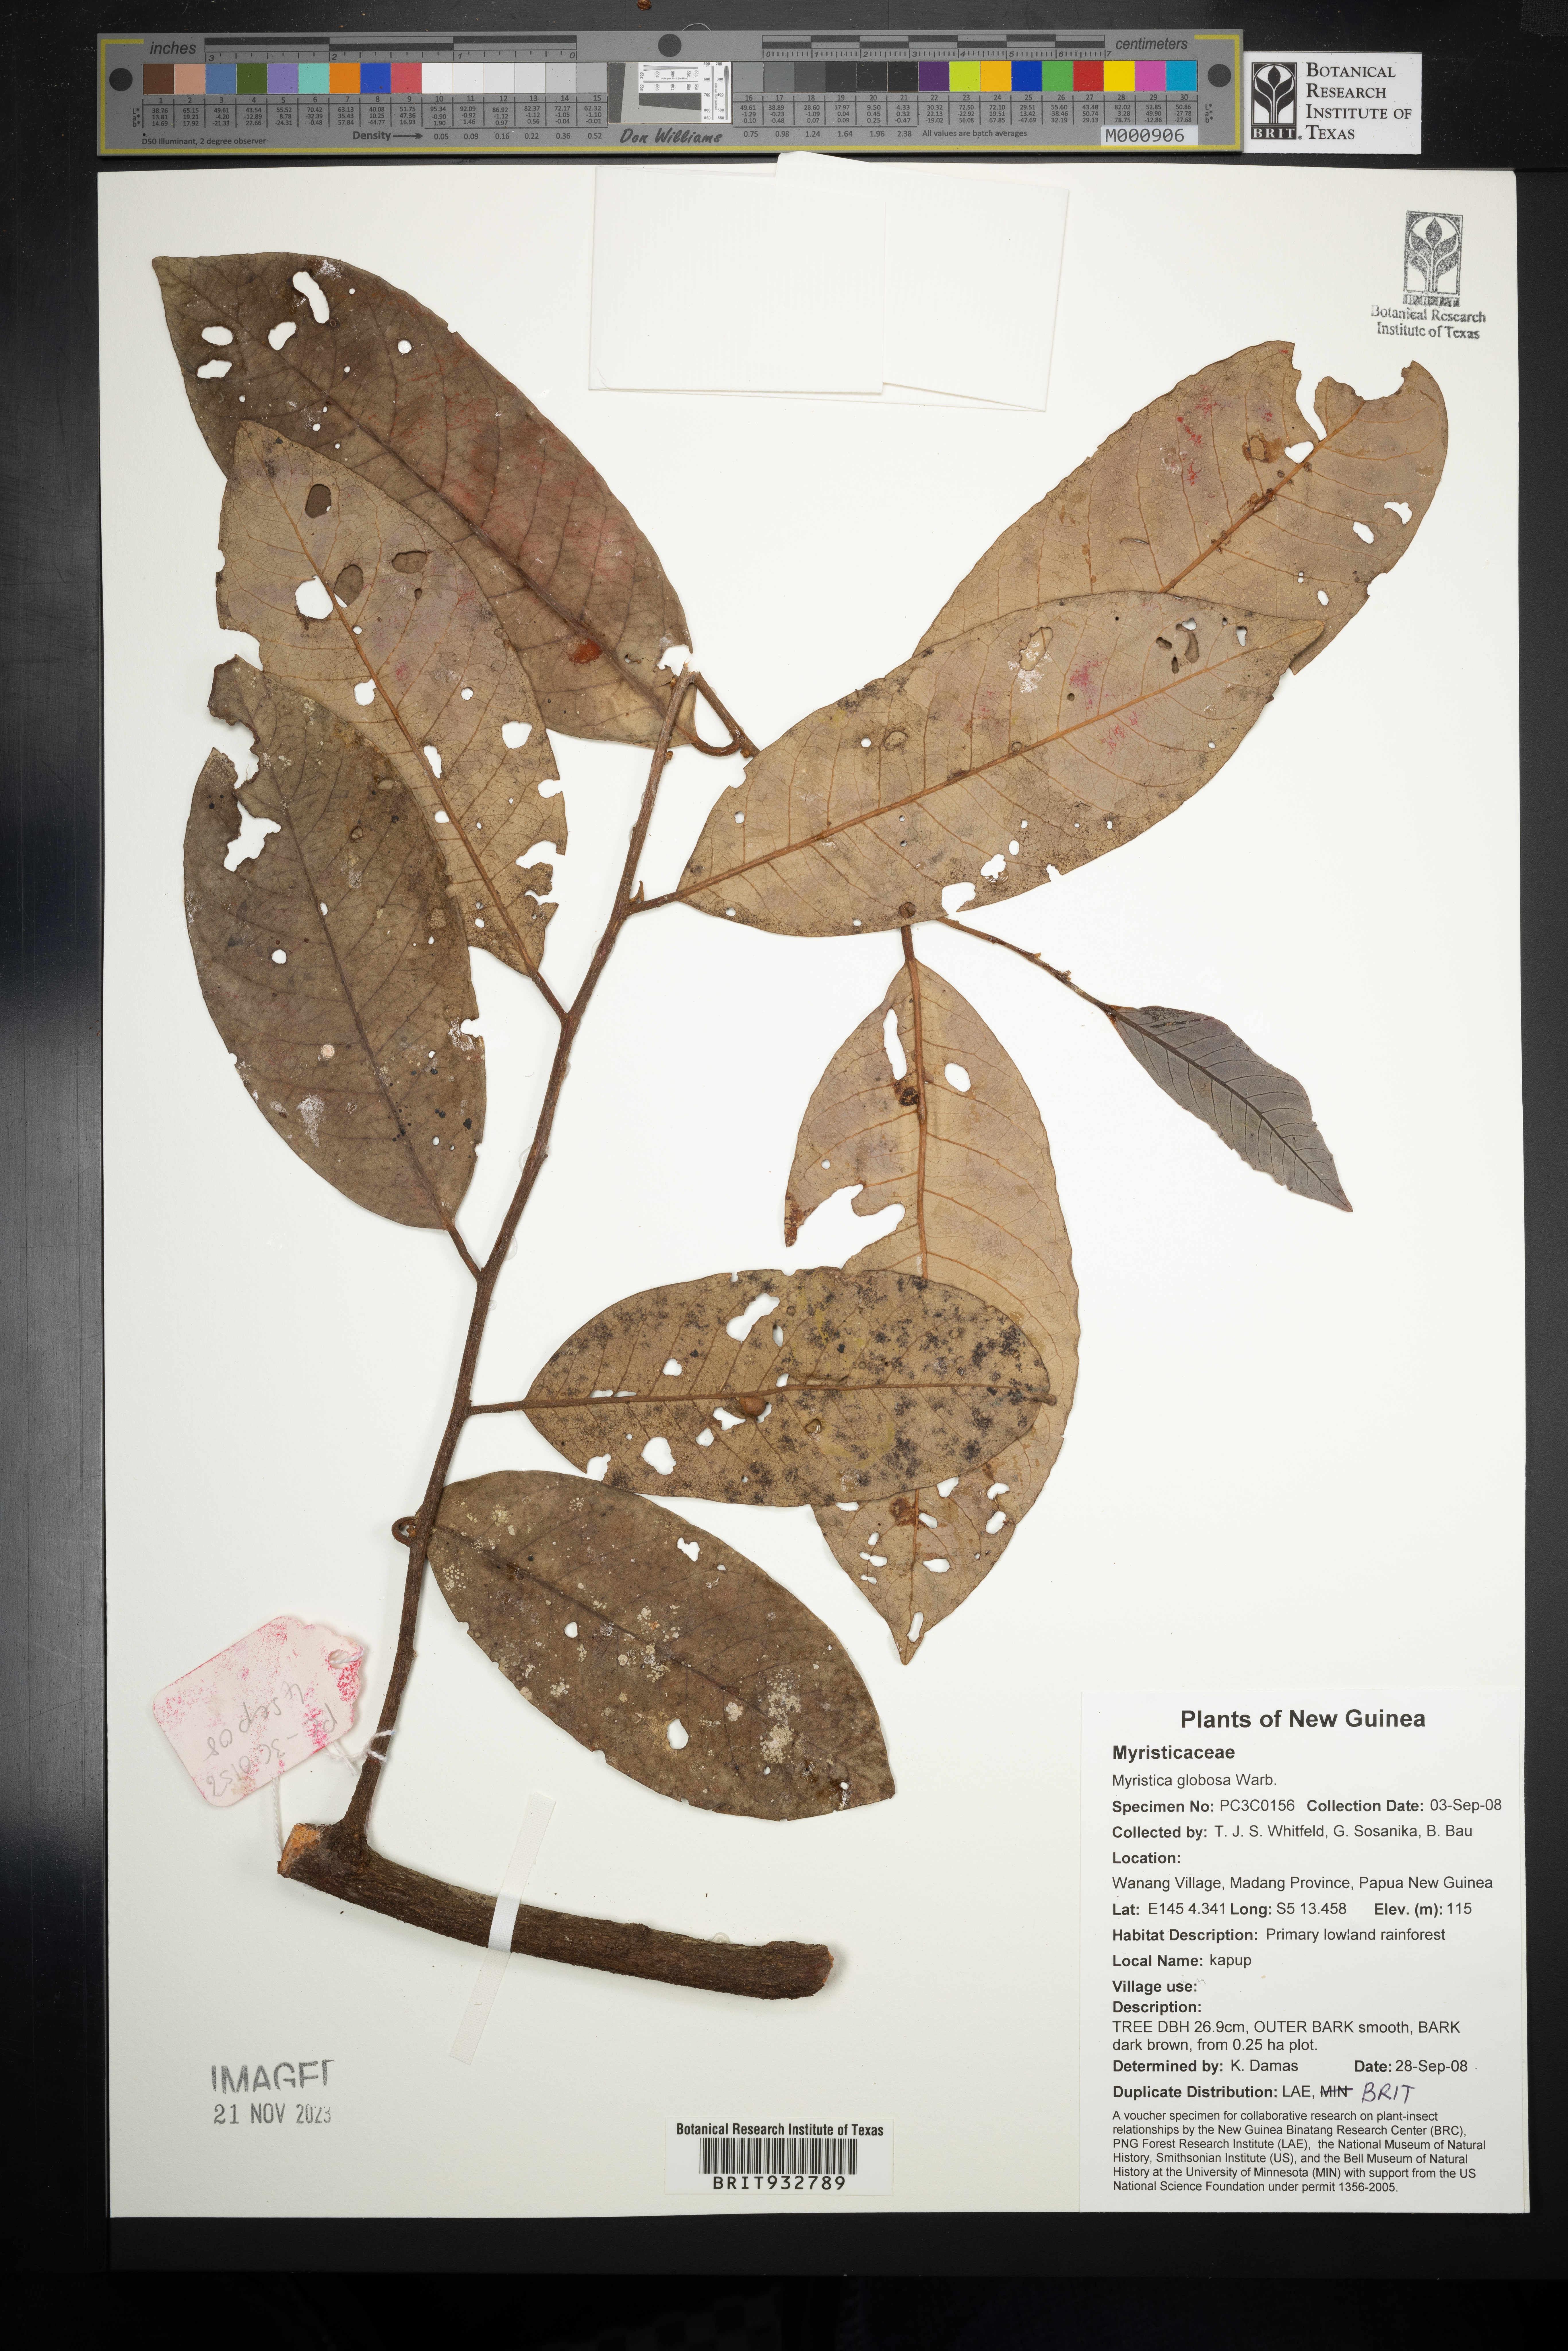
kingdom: Plantae
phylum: Tracheophyta
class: Magnoliopsida
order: Magnoliales
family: Myristicaceae
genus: Myristica
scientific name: Myristica
